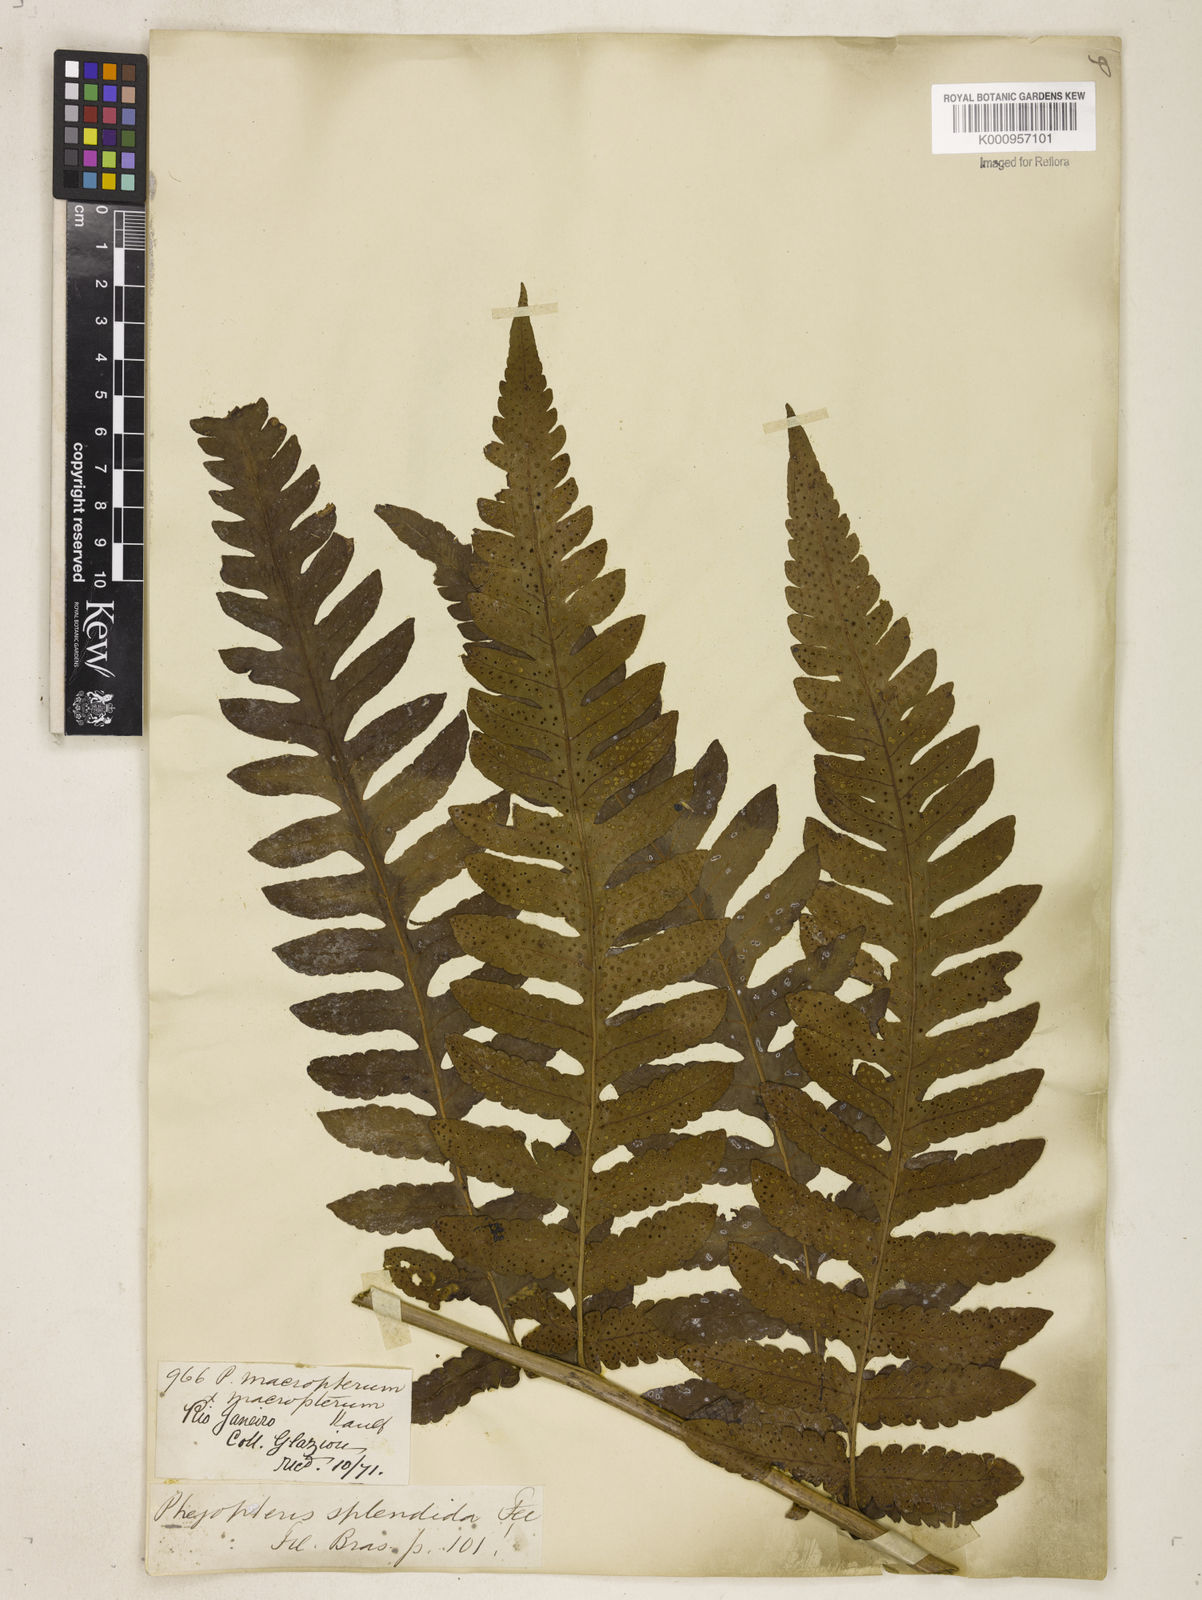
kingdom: Plantae
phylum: Tracheophyta
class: Polypodiopsida
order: Polypodiales
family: Dryopteridaceae
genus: Megalastrum
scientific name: Megalastrum connexum
